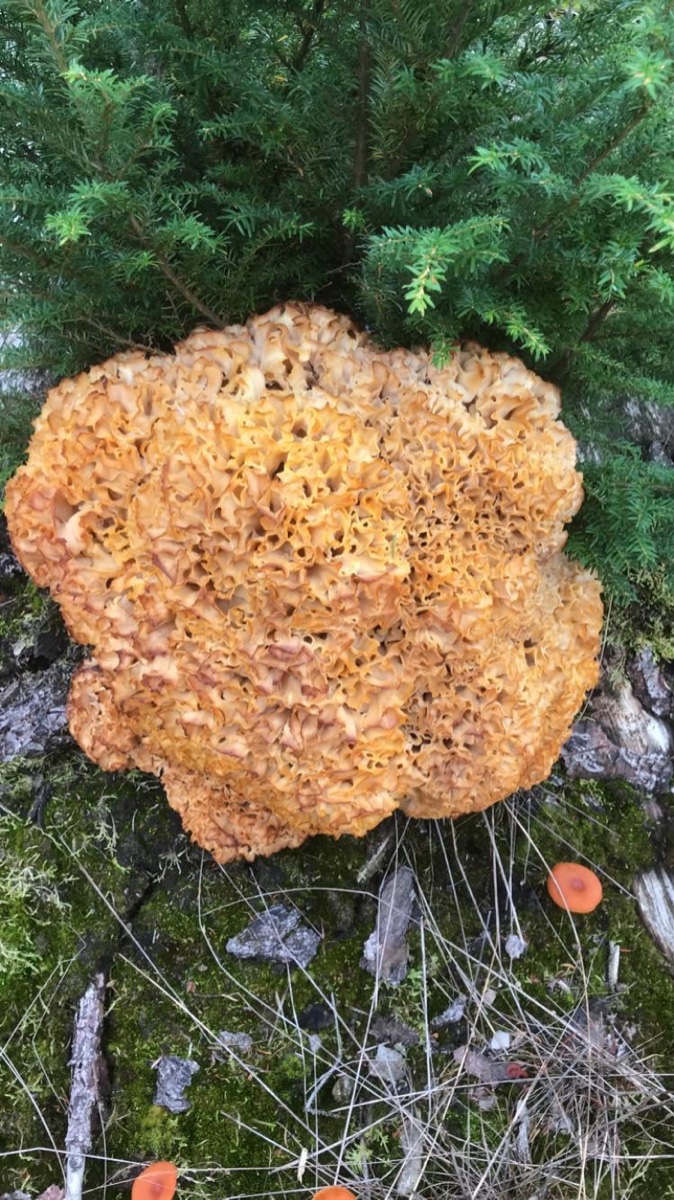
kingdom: Fungi
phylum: Basidiomycota
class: Agaricomycetes
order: Polyporales
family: Sparassidaceae
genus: Sparassis
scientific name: Sparassis crispa
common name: kruset blomkålssvamp
